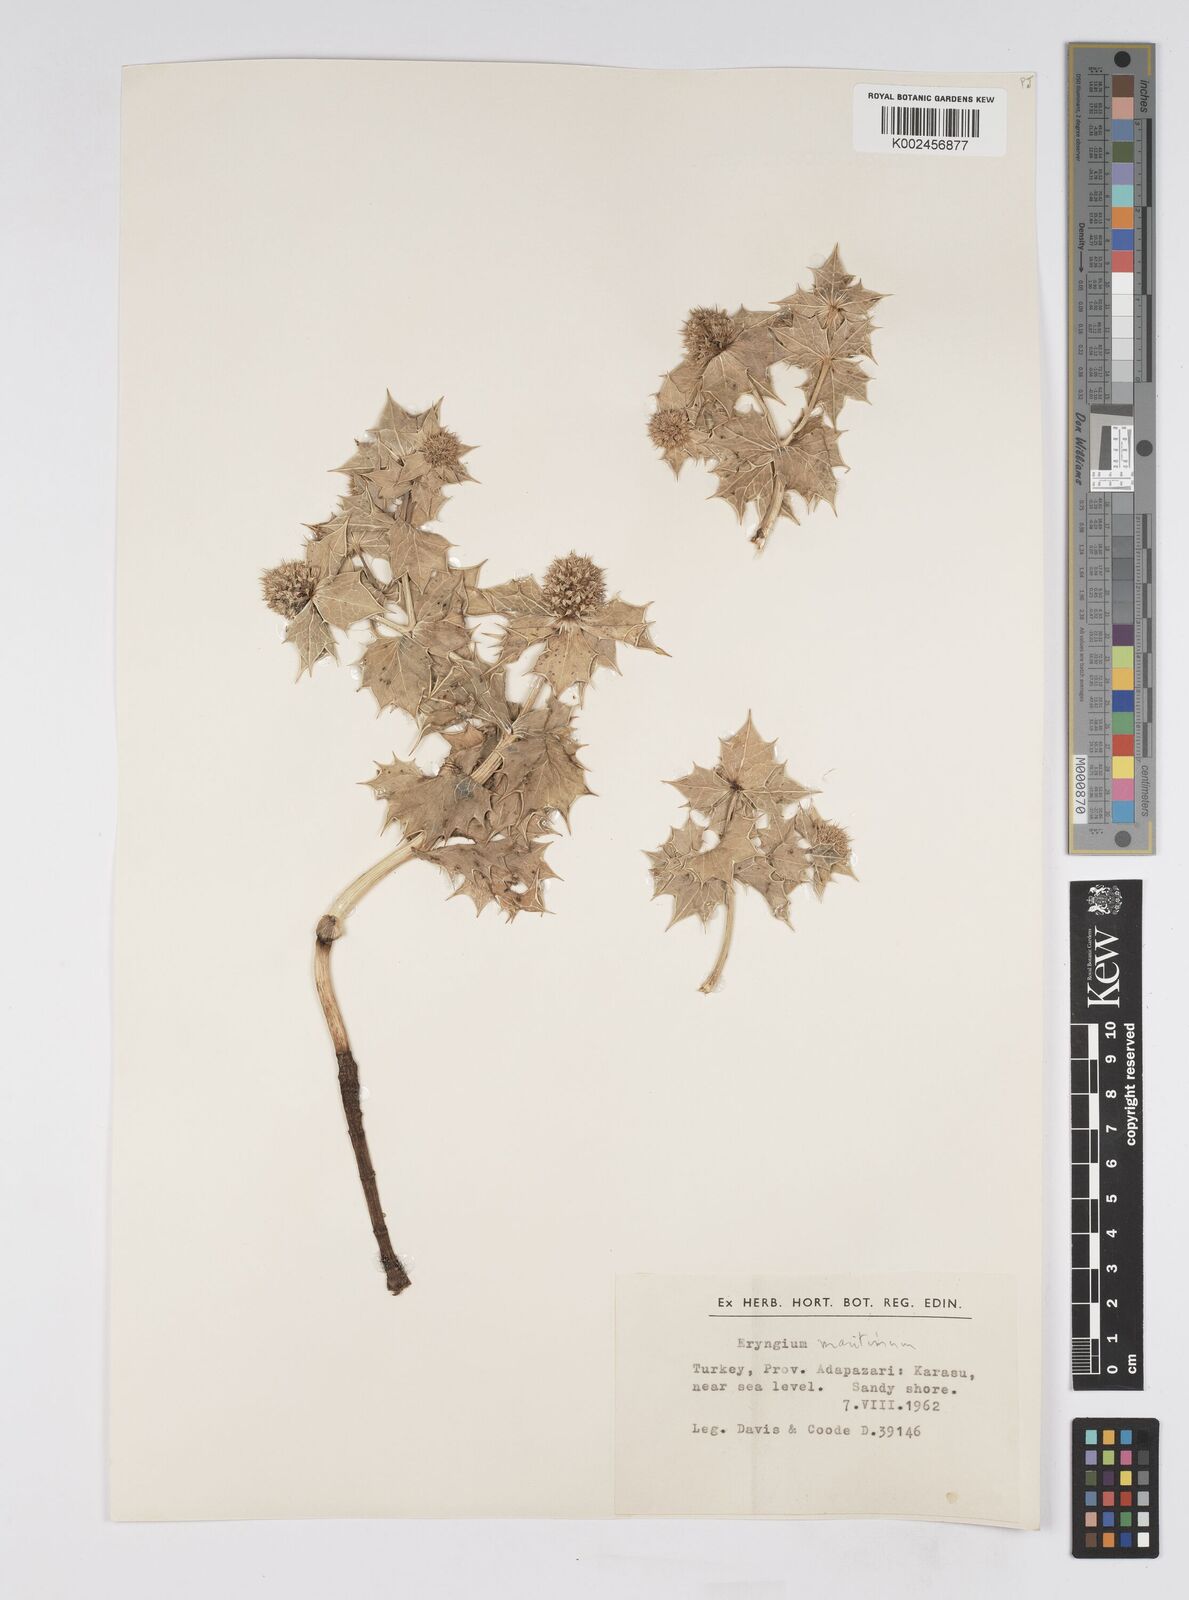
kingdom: Plantae
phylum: Tracheophyta
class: Magnoliopsida
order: Apiales
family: Apiaceae
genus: Eryngium
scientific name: Eryngium maritimum
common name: Sea-holly
